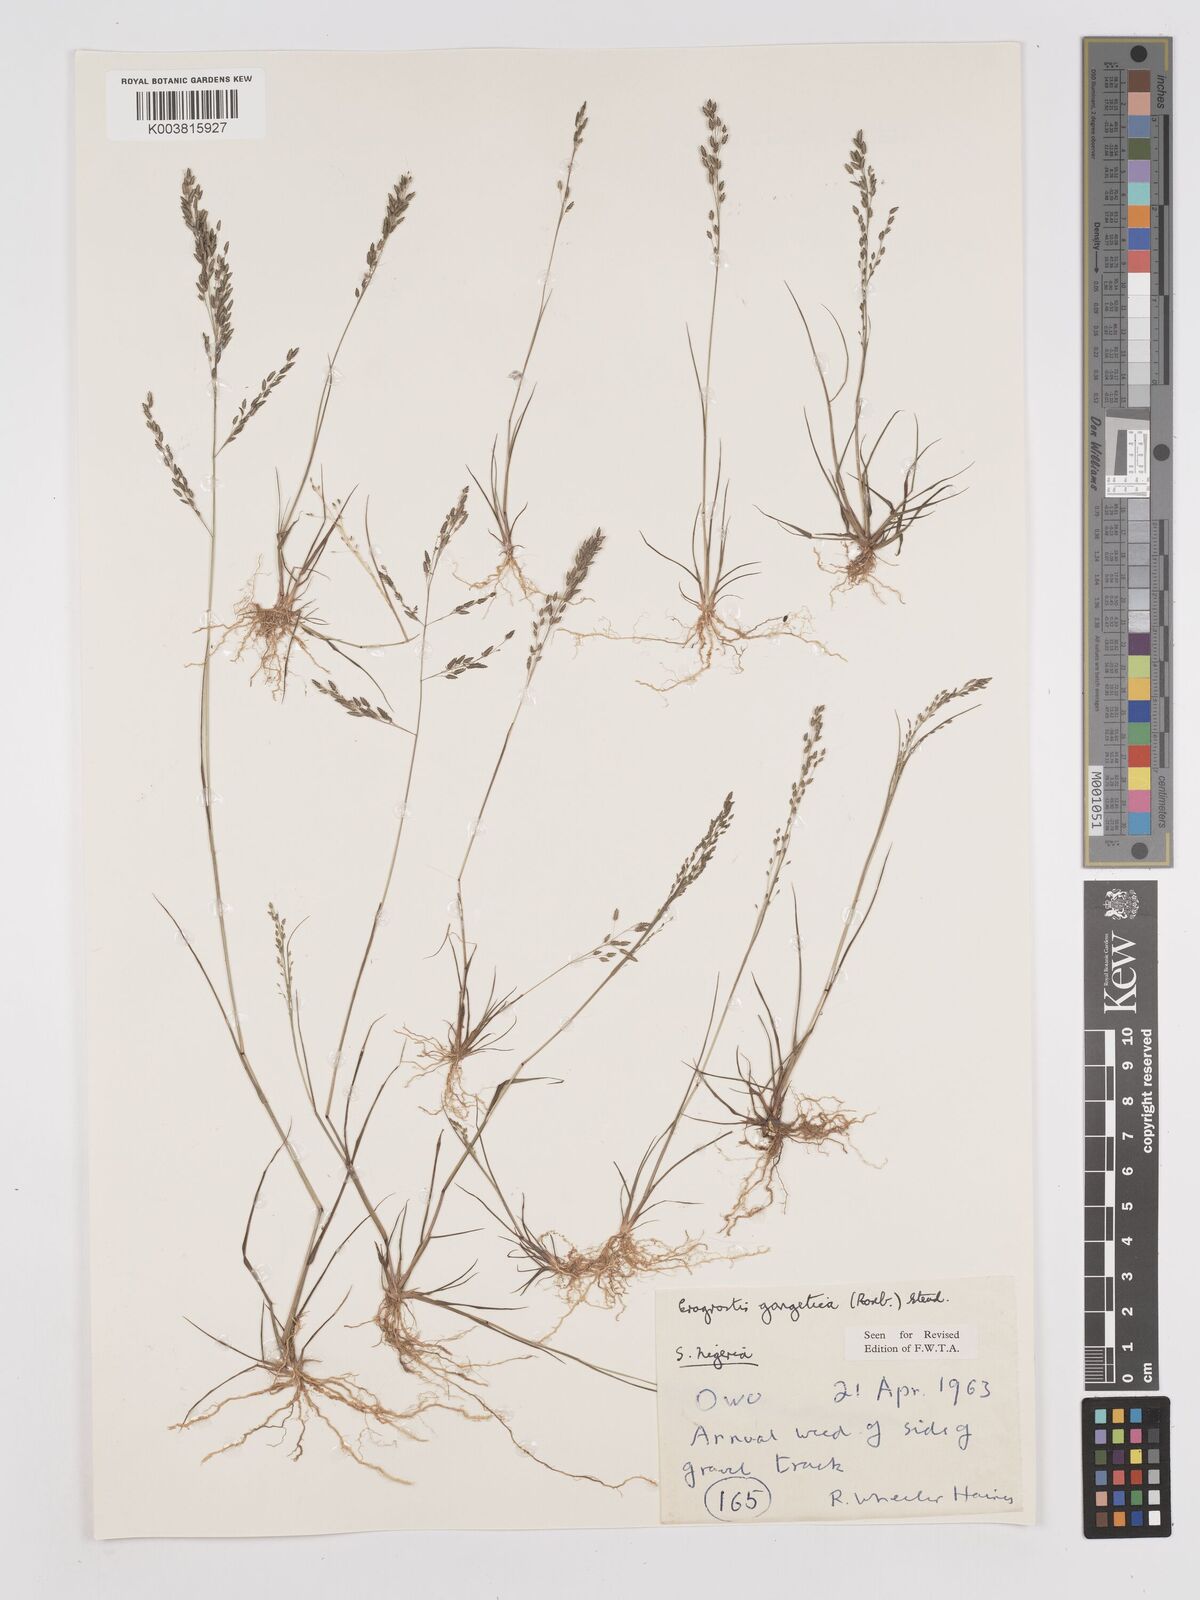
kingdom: Plantae
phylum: Tracheophyta
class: Liliopsida
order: Poales
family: Poaceae
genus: Eragrostis
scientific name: Eragrostis gangetica
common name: Slimflower lovegrass
